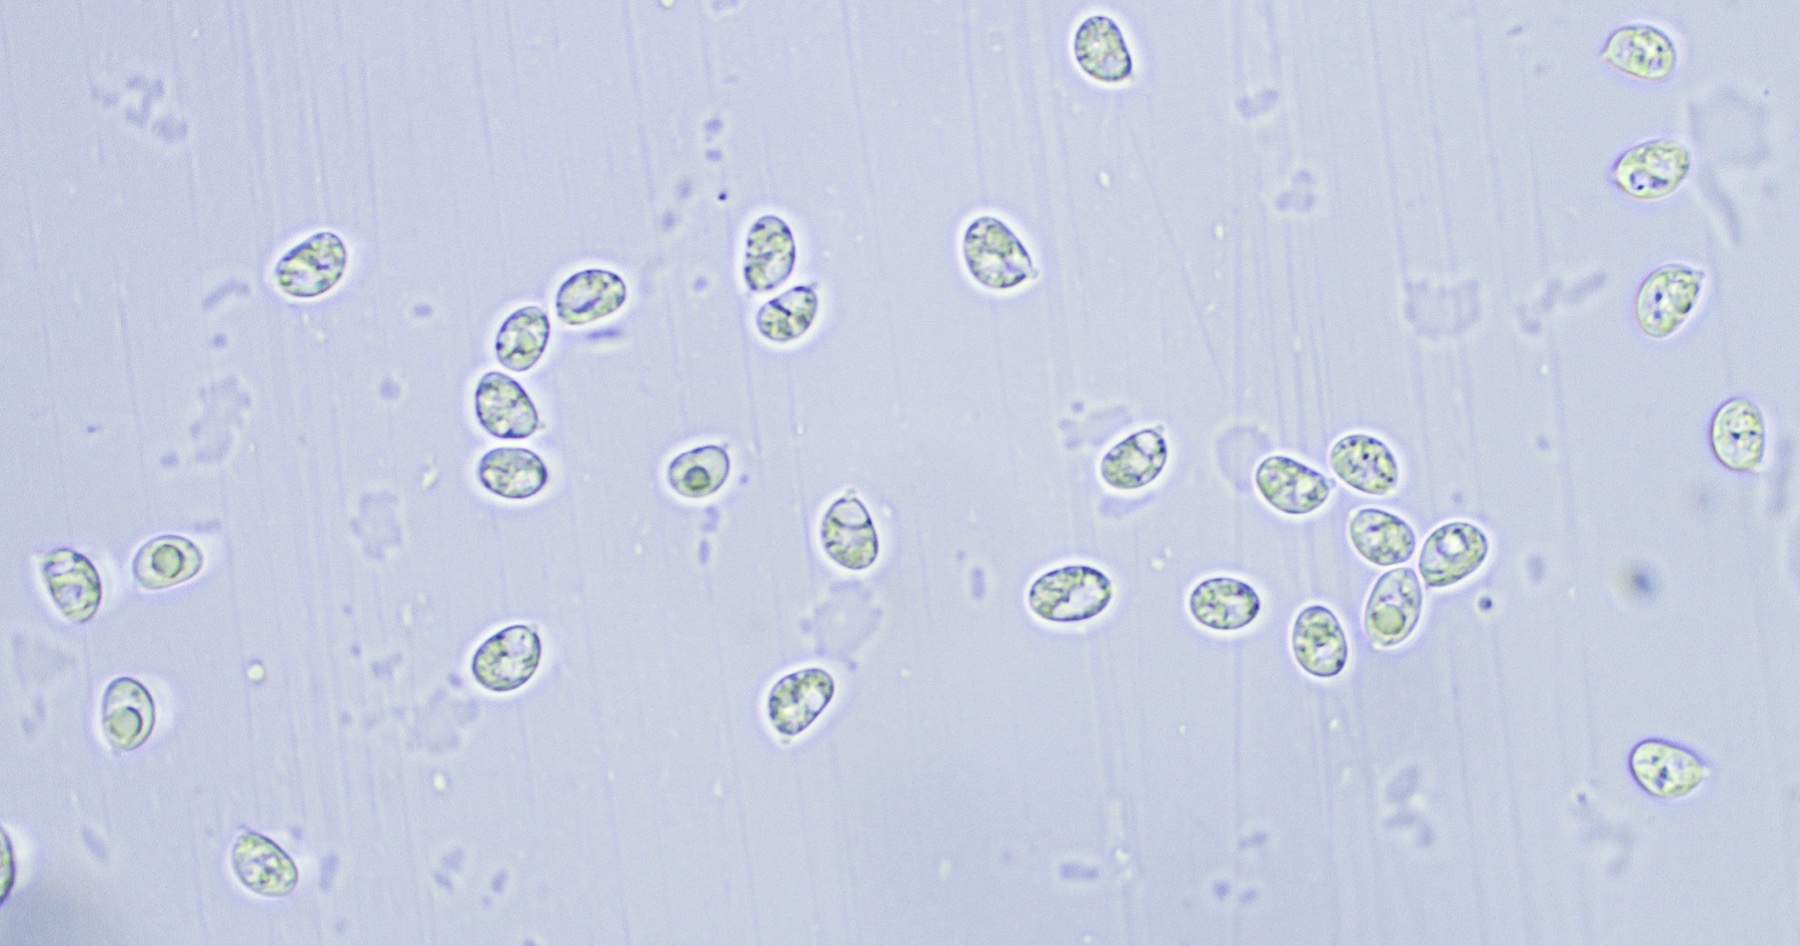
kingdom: Fungi
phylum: Basidiomycota
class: Agaricomycetes
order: Hymenochaetales
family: Hyphodontiaceae
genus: Hyphodontia
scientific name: Hyphodontia pallidula
